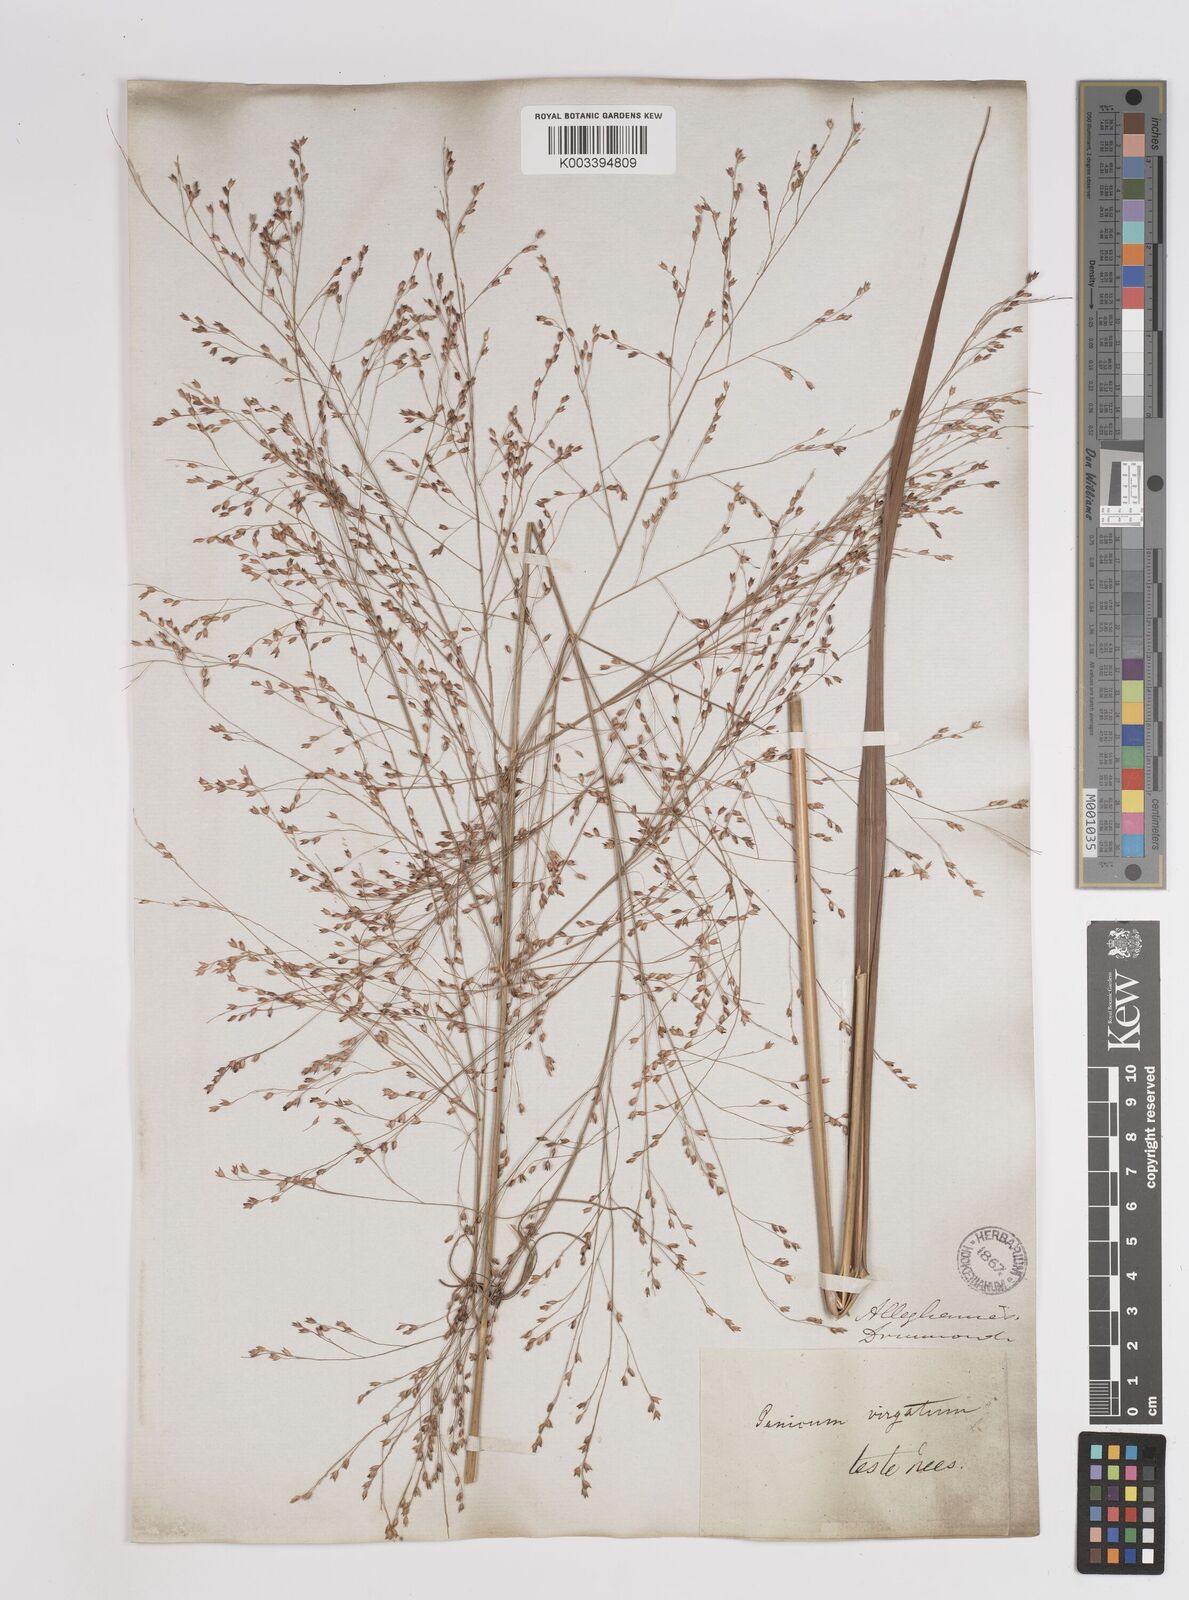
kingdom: Plantae
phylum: Tracheophyta
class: Liliopsida
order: Poales
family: Poaceae
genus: Panicum
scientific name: Panicum virgatum
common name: Switchgrass
